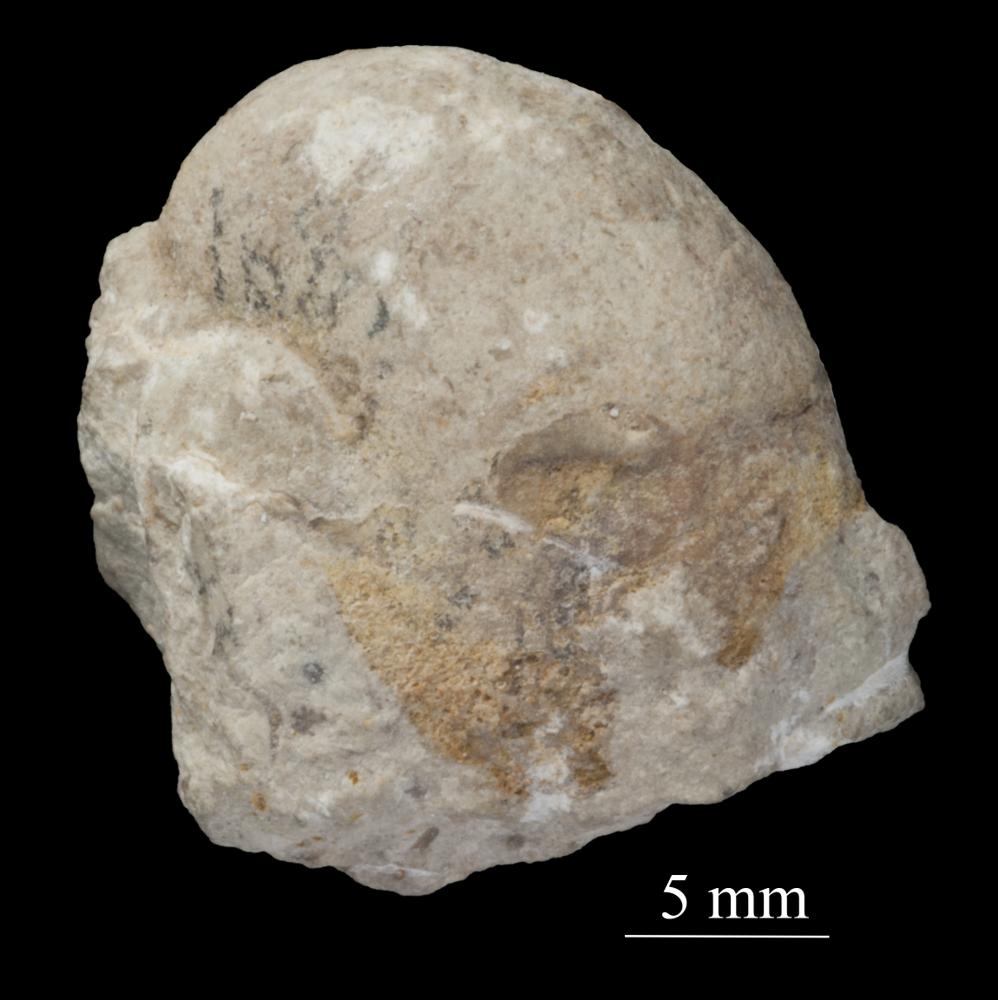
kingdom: Animalia
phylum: Mollusca
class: Gastropoda
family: Sinuitidae
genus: Sinuites
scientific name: Sinuites bilobatus
